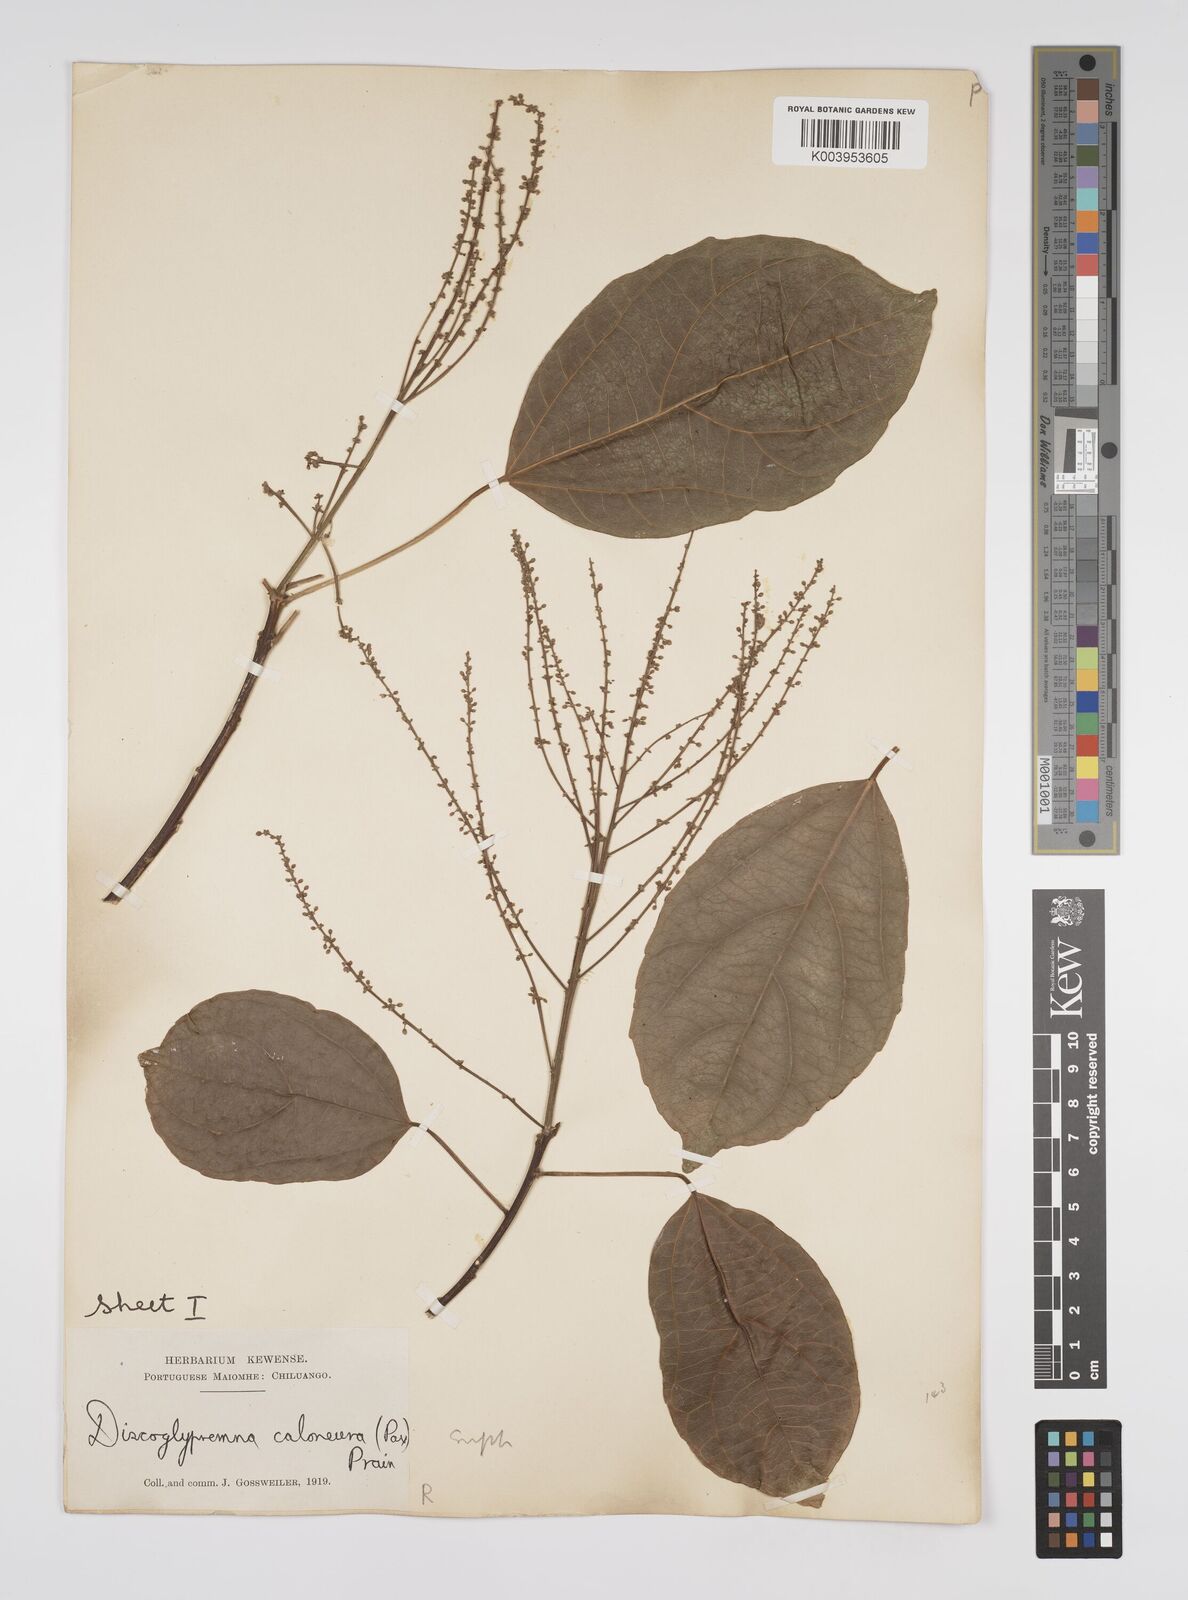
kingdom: Plantae
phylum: Tracheophyta
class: Magnoliopsida
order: Malpighiales
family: Euphorbiaceae
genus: Discoglypremna
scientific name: Discoglypremna caloneura
